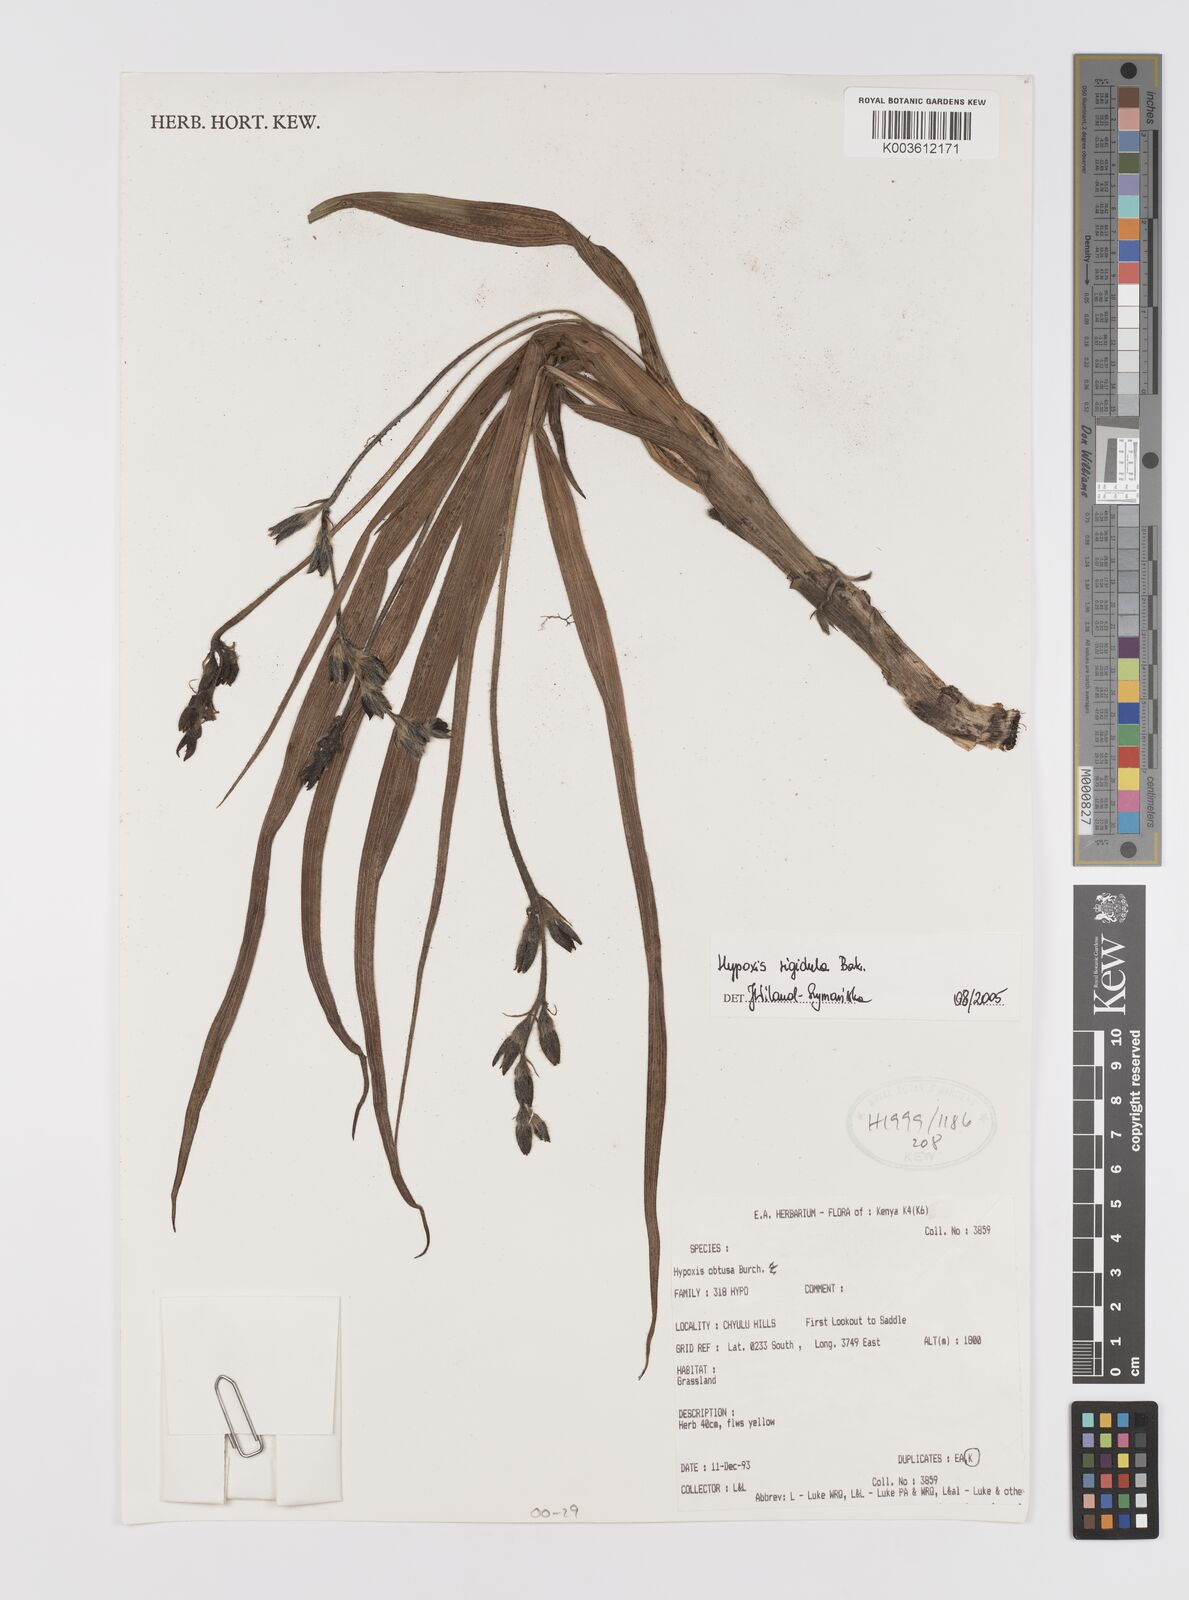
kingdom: Plantae
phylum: Tracheophyta
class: Liliopsida
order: Asparagales
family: Hypoxidaceae
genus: Hypoxis
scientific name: Hypoxis rigidula
